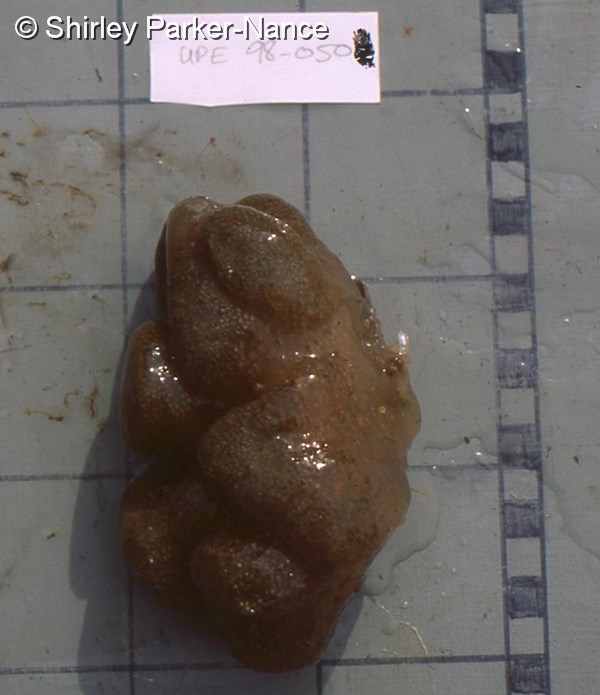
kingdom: Animalia
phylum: Chordata
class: Ascidiacea
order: Aplousobranchia
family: Pseudodistomidae
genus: Pseudodistoma
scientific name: Pseudodistoma
